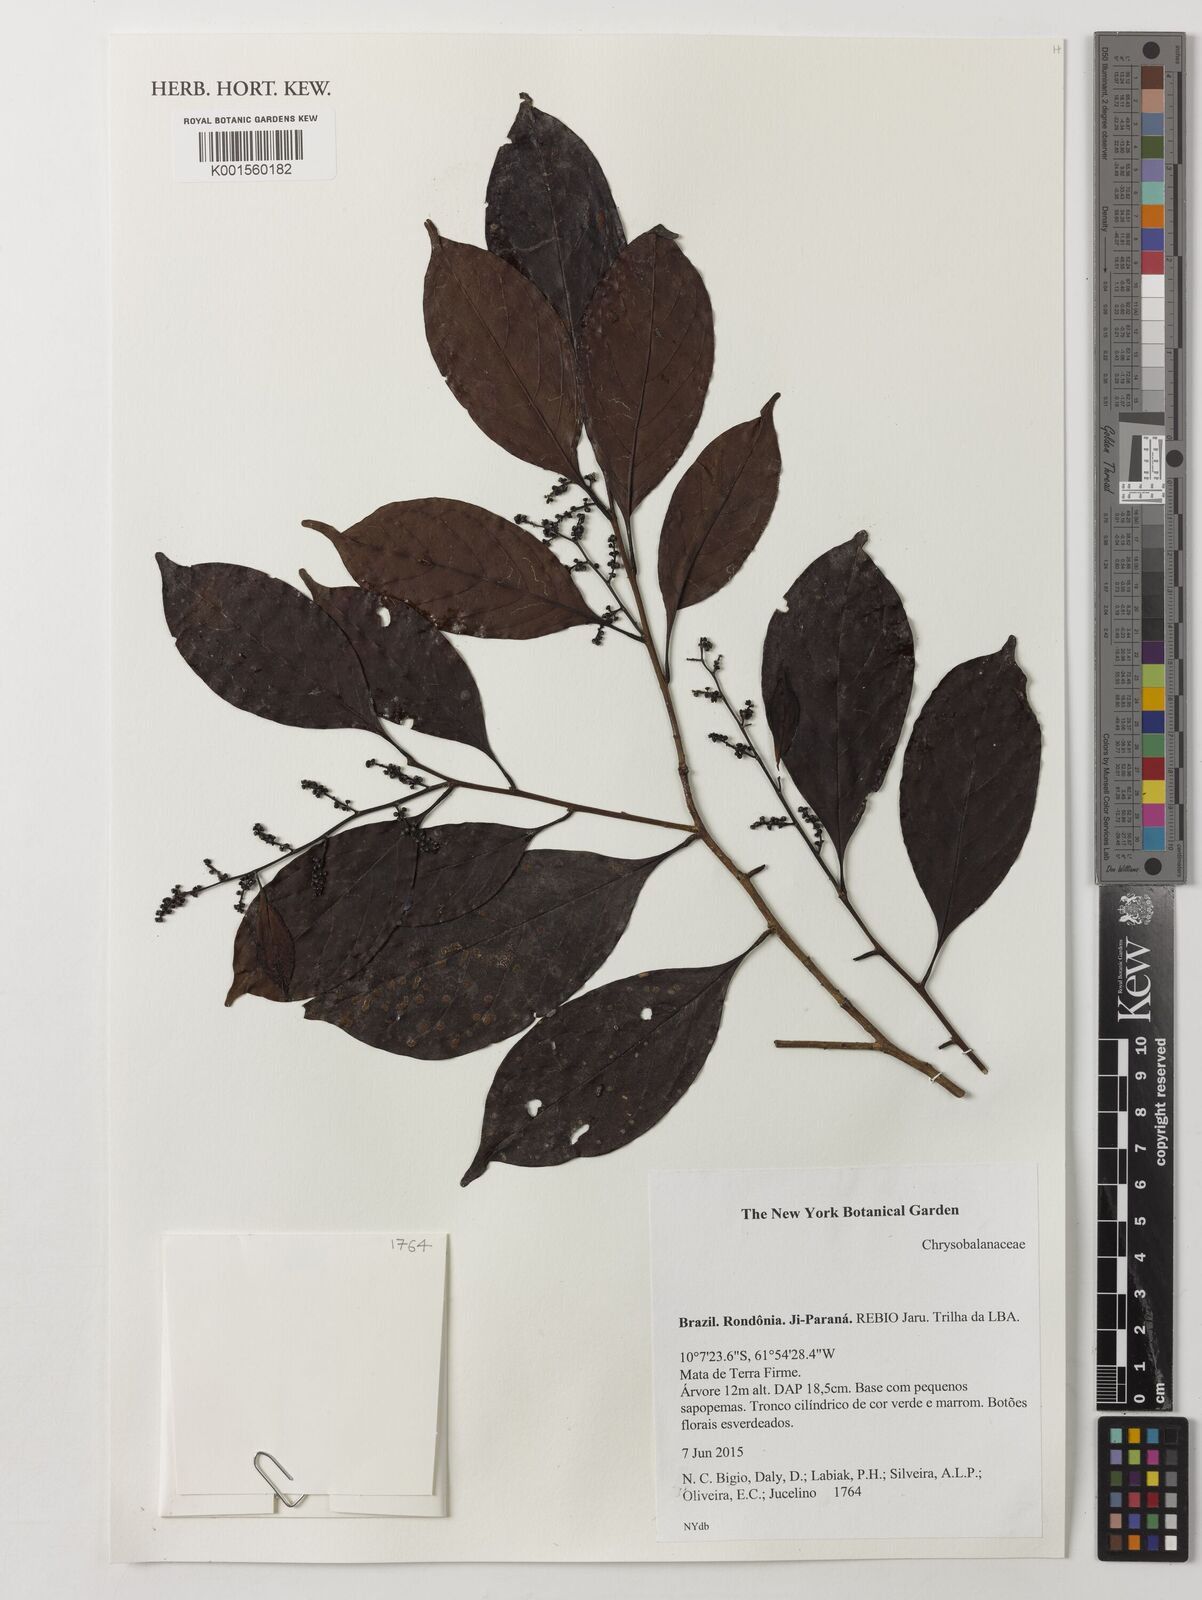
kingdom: Plantae
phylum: Tracheophyta
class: Magnoliopsida
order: Malpighiales
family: Chrysobalanaceae
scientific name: Chrysobalanaceae
